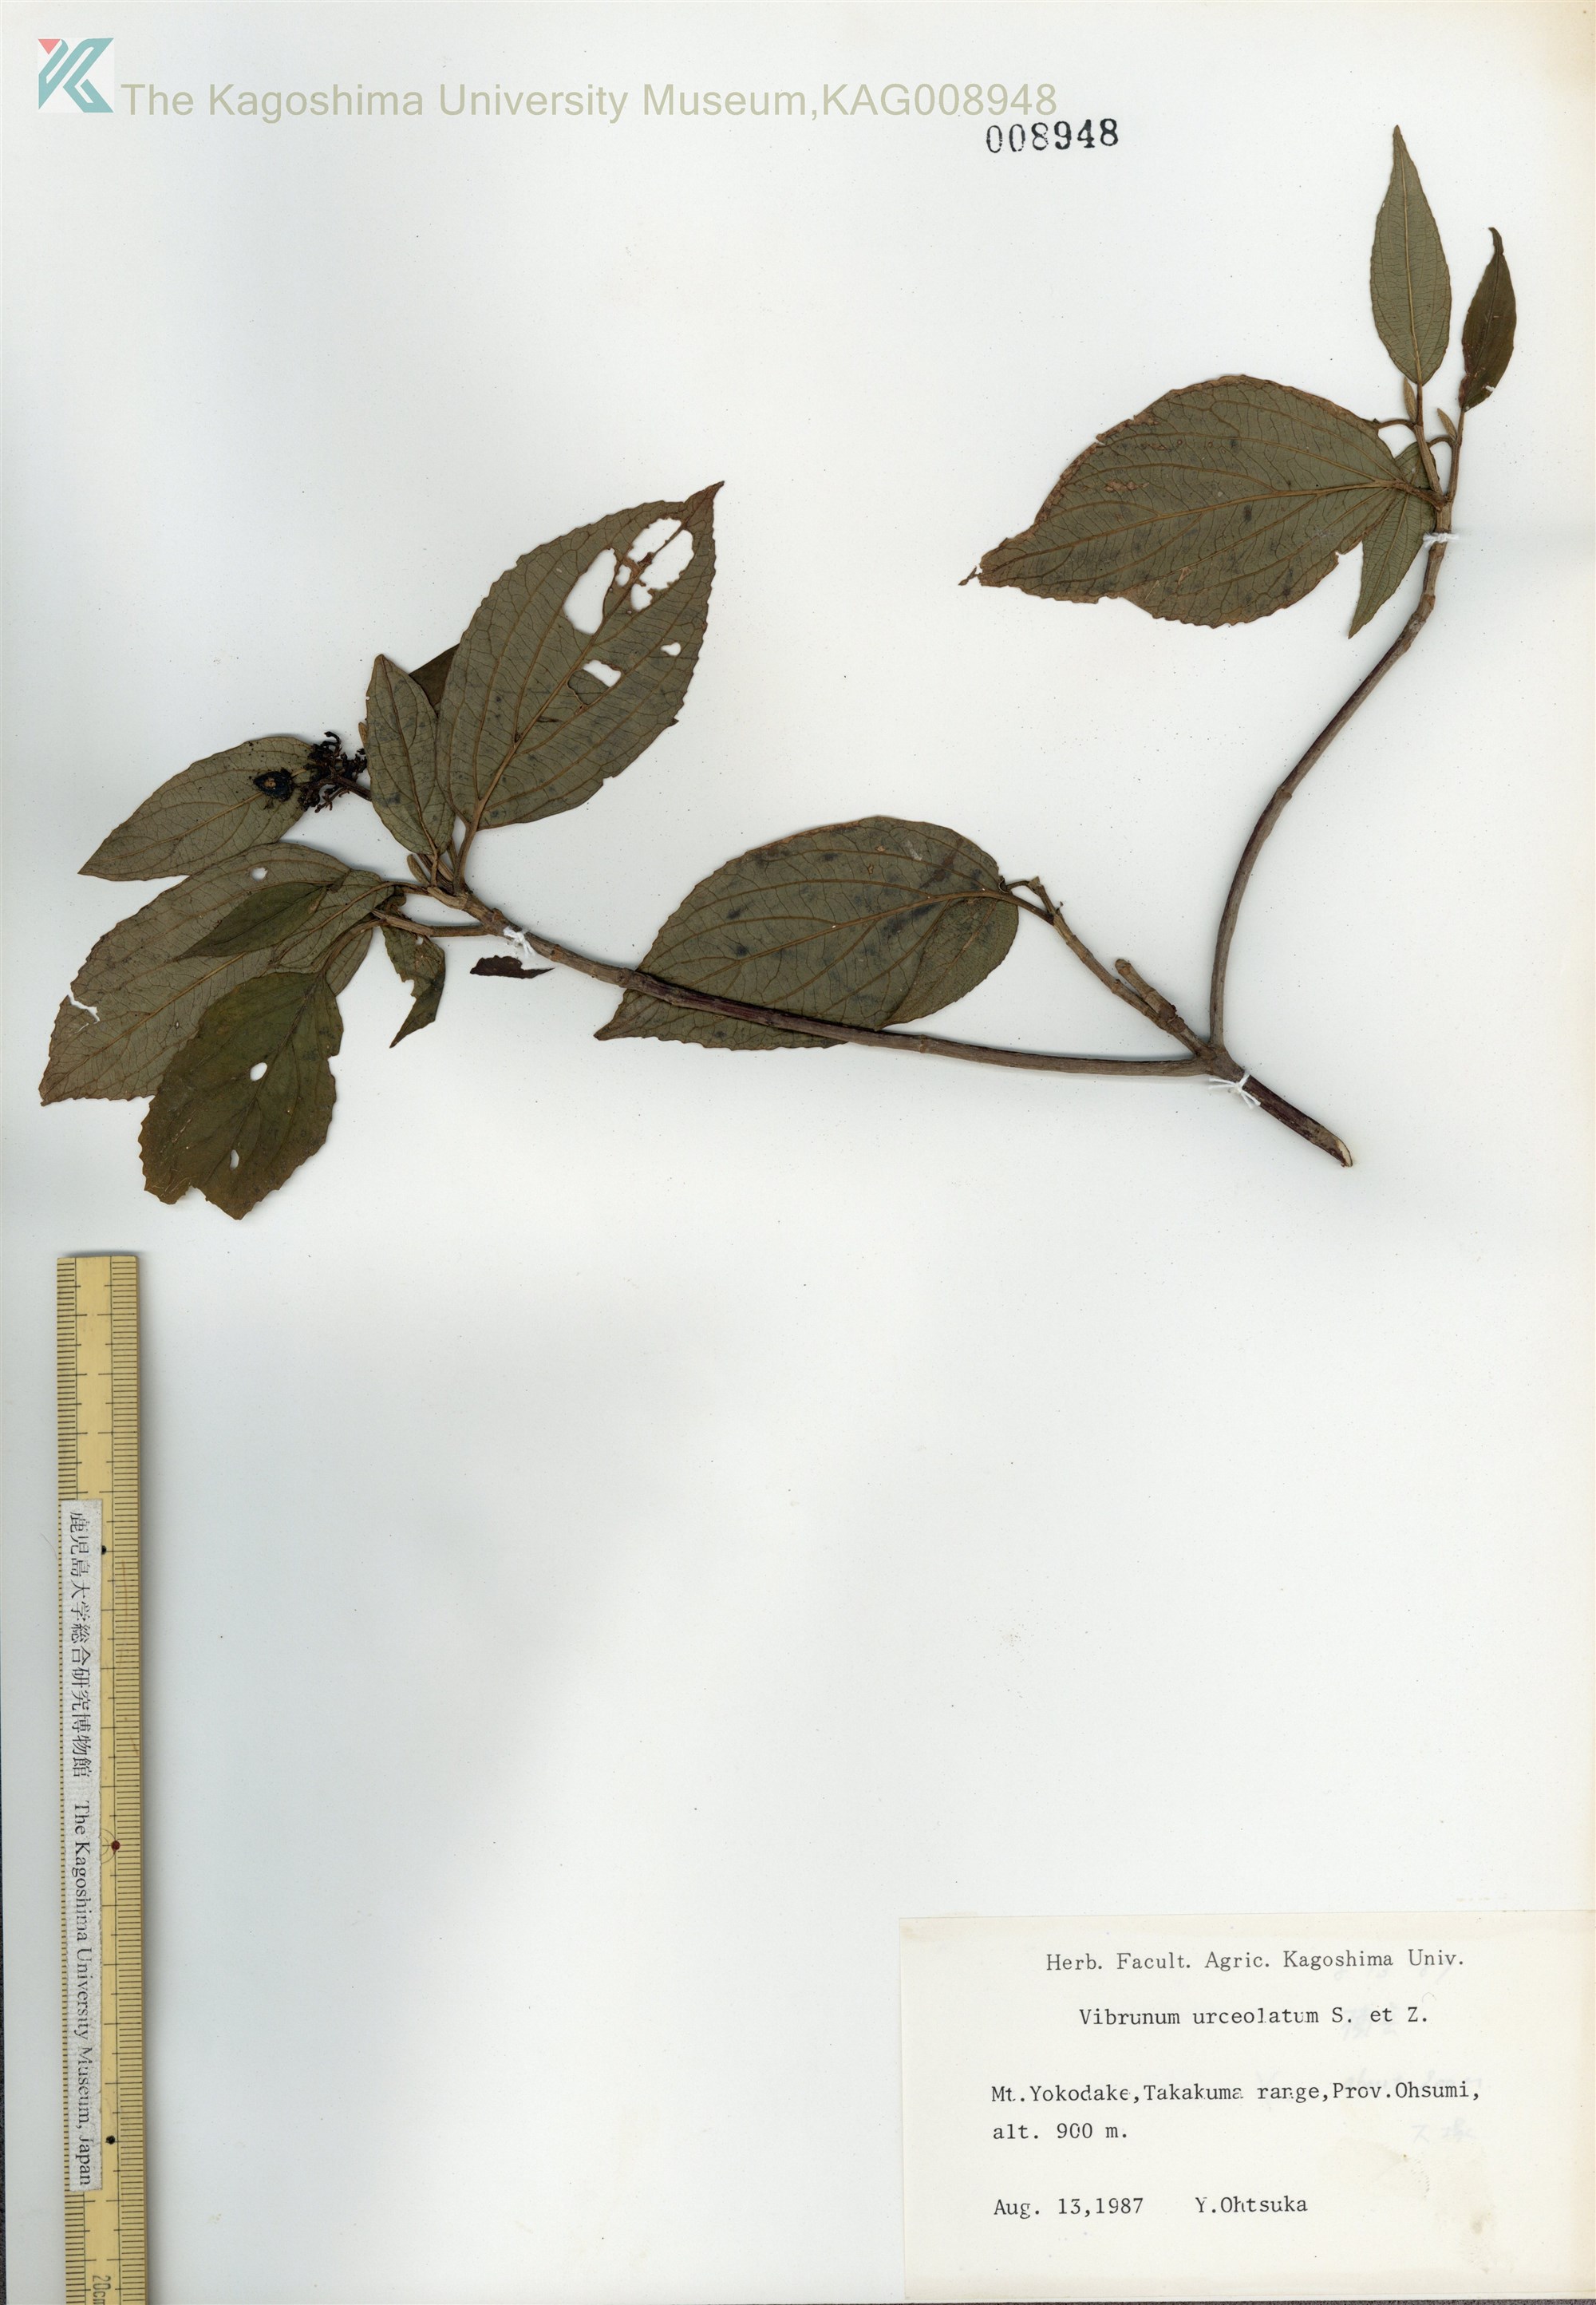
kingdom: Plantae
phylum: Tracheophyta
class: Magnoliopsida
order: Dipsacales
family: Viburnaceae
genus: Viburnum
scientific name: Viburnum urceolatum
